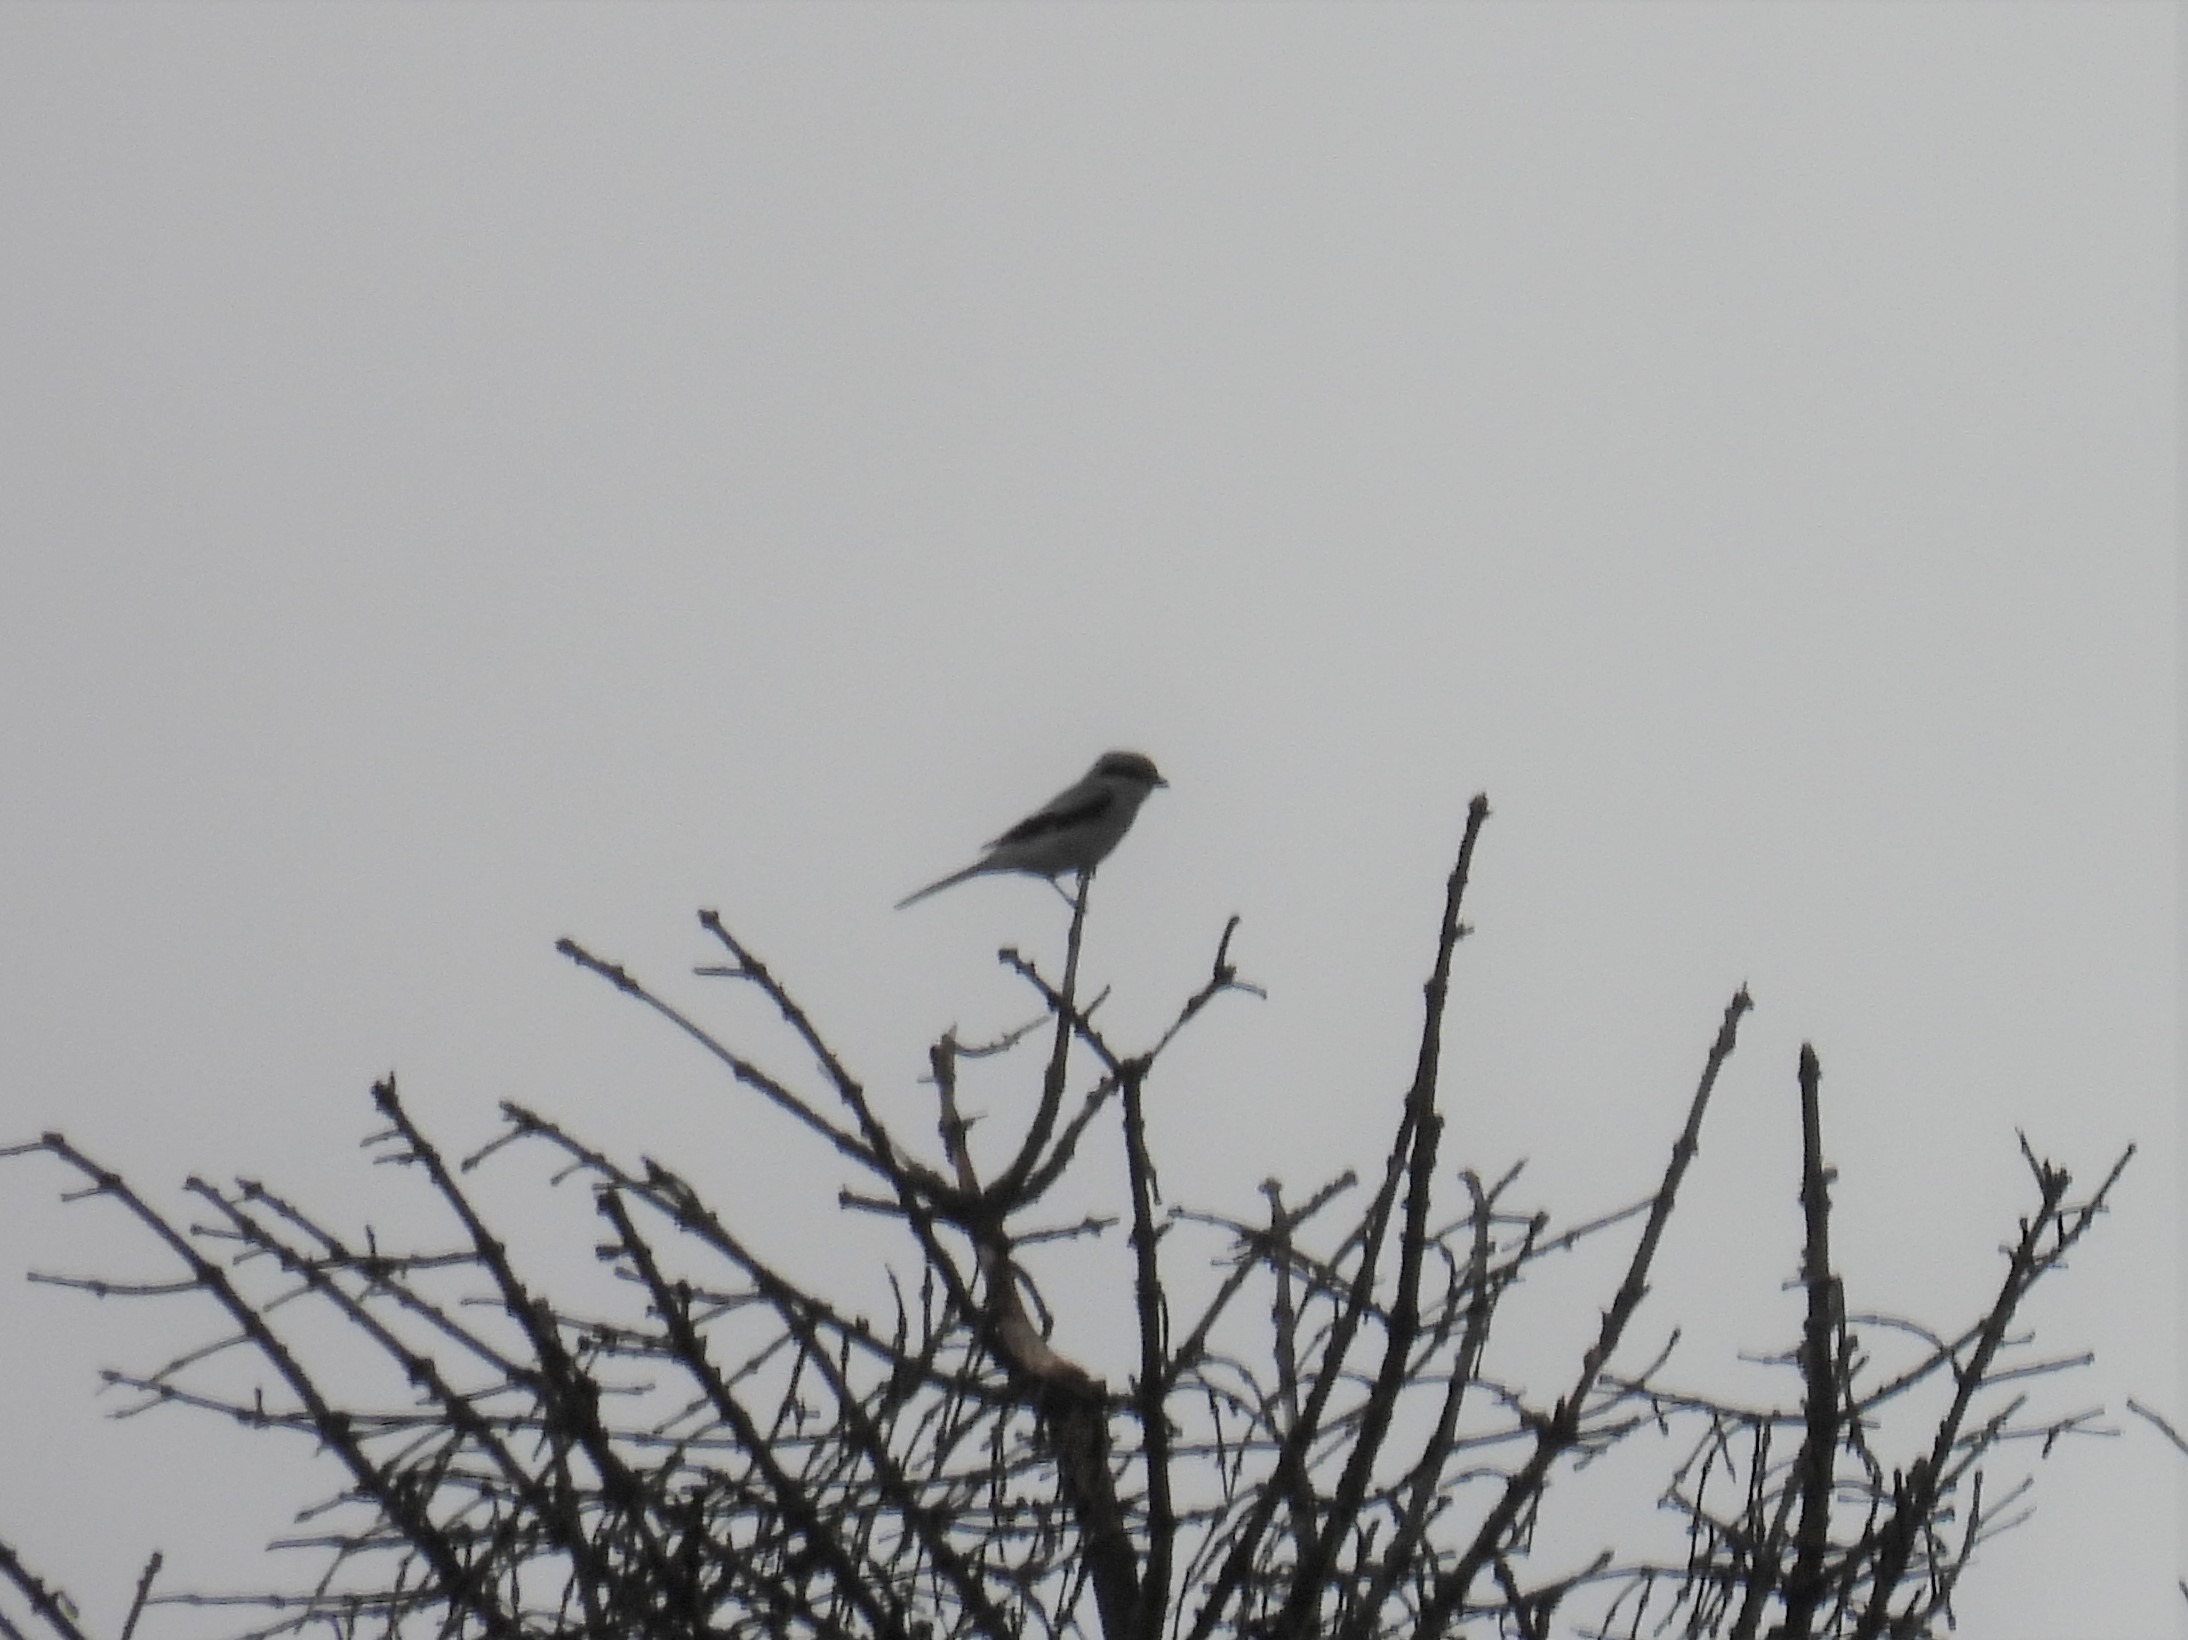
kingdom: Animalia
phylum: Chordata
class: Aves
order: Passeriformes
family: Laniidae
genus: Lanius
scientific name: Lanius excubitor
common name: Stor tornskade
